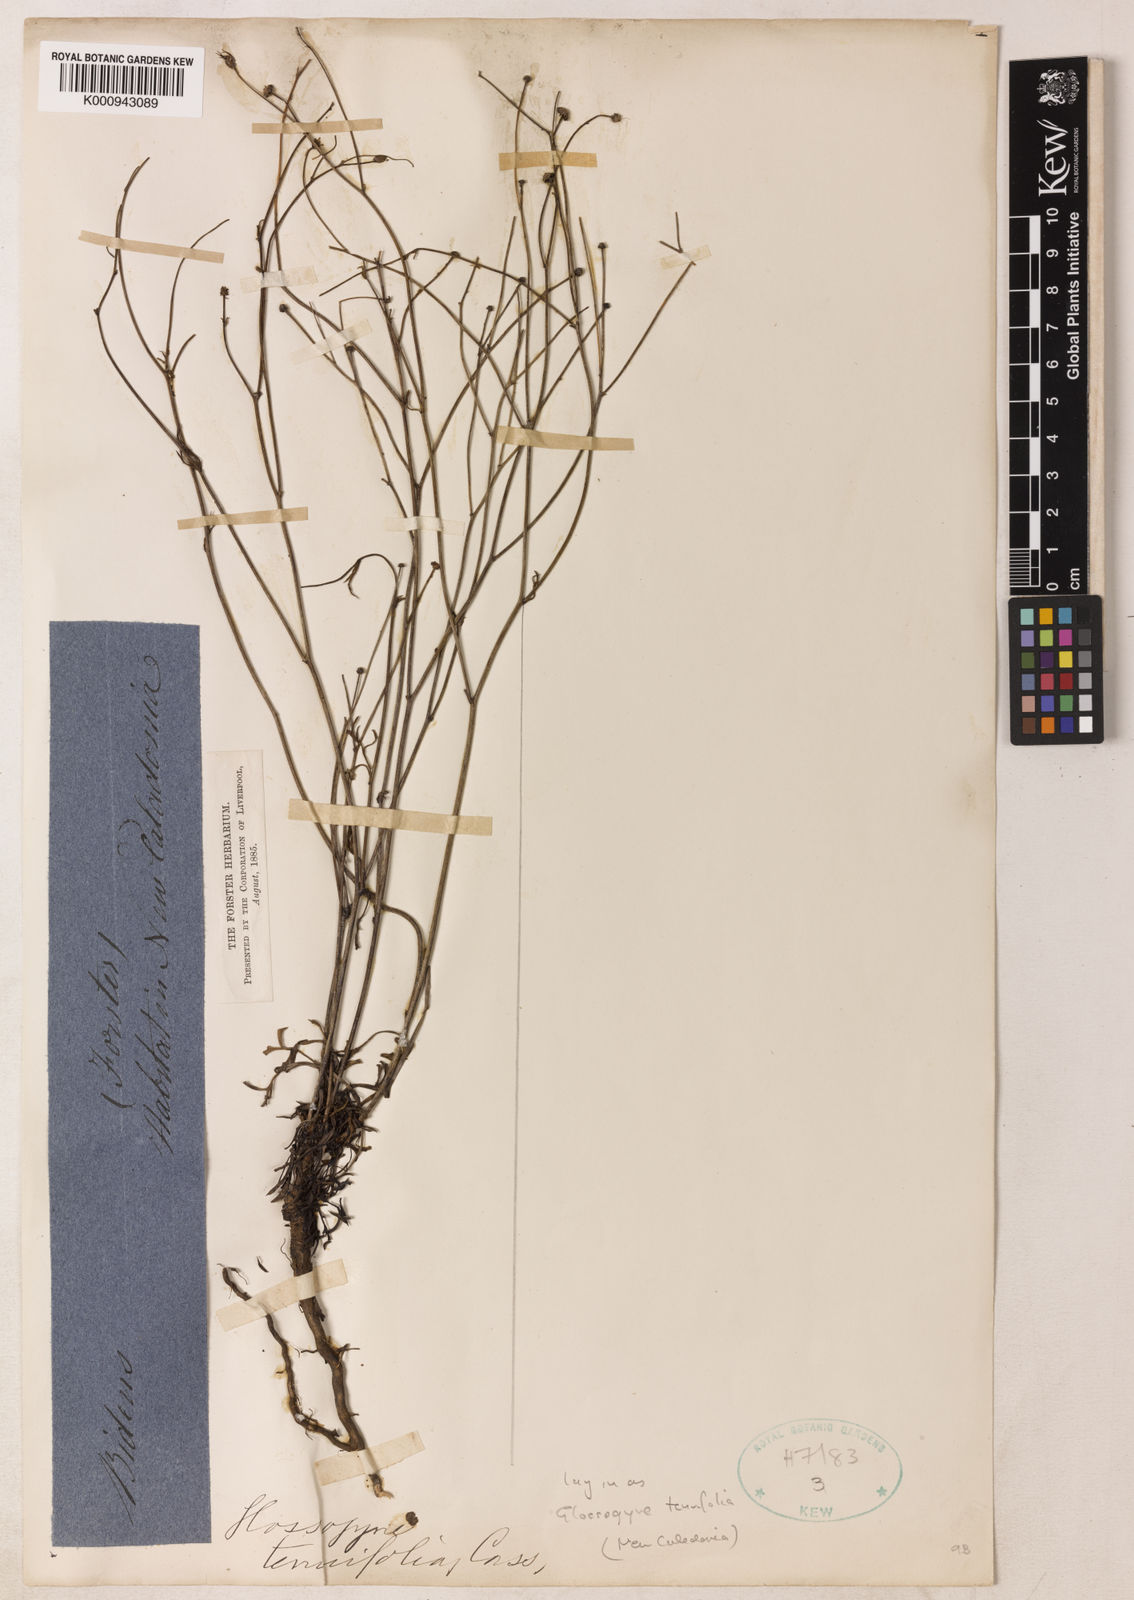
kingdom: Plantae
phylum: Tracheophyta
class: Magnoliopsida
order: Asterales
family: Asteraceae
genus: Glossocardia
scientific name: Glossocardia bidens
